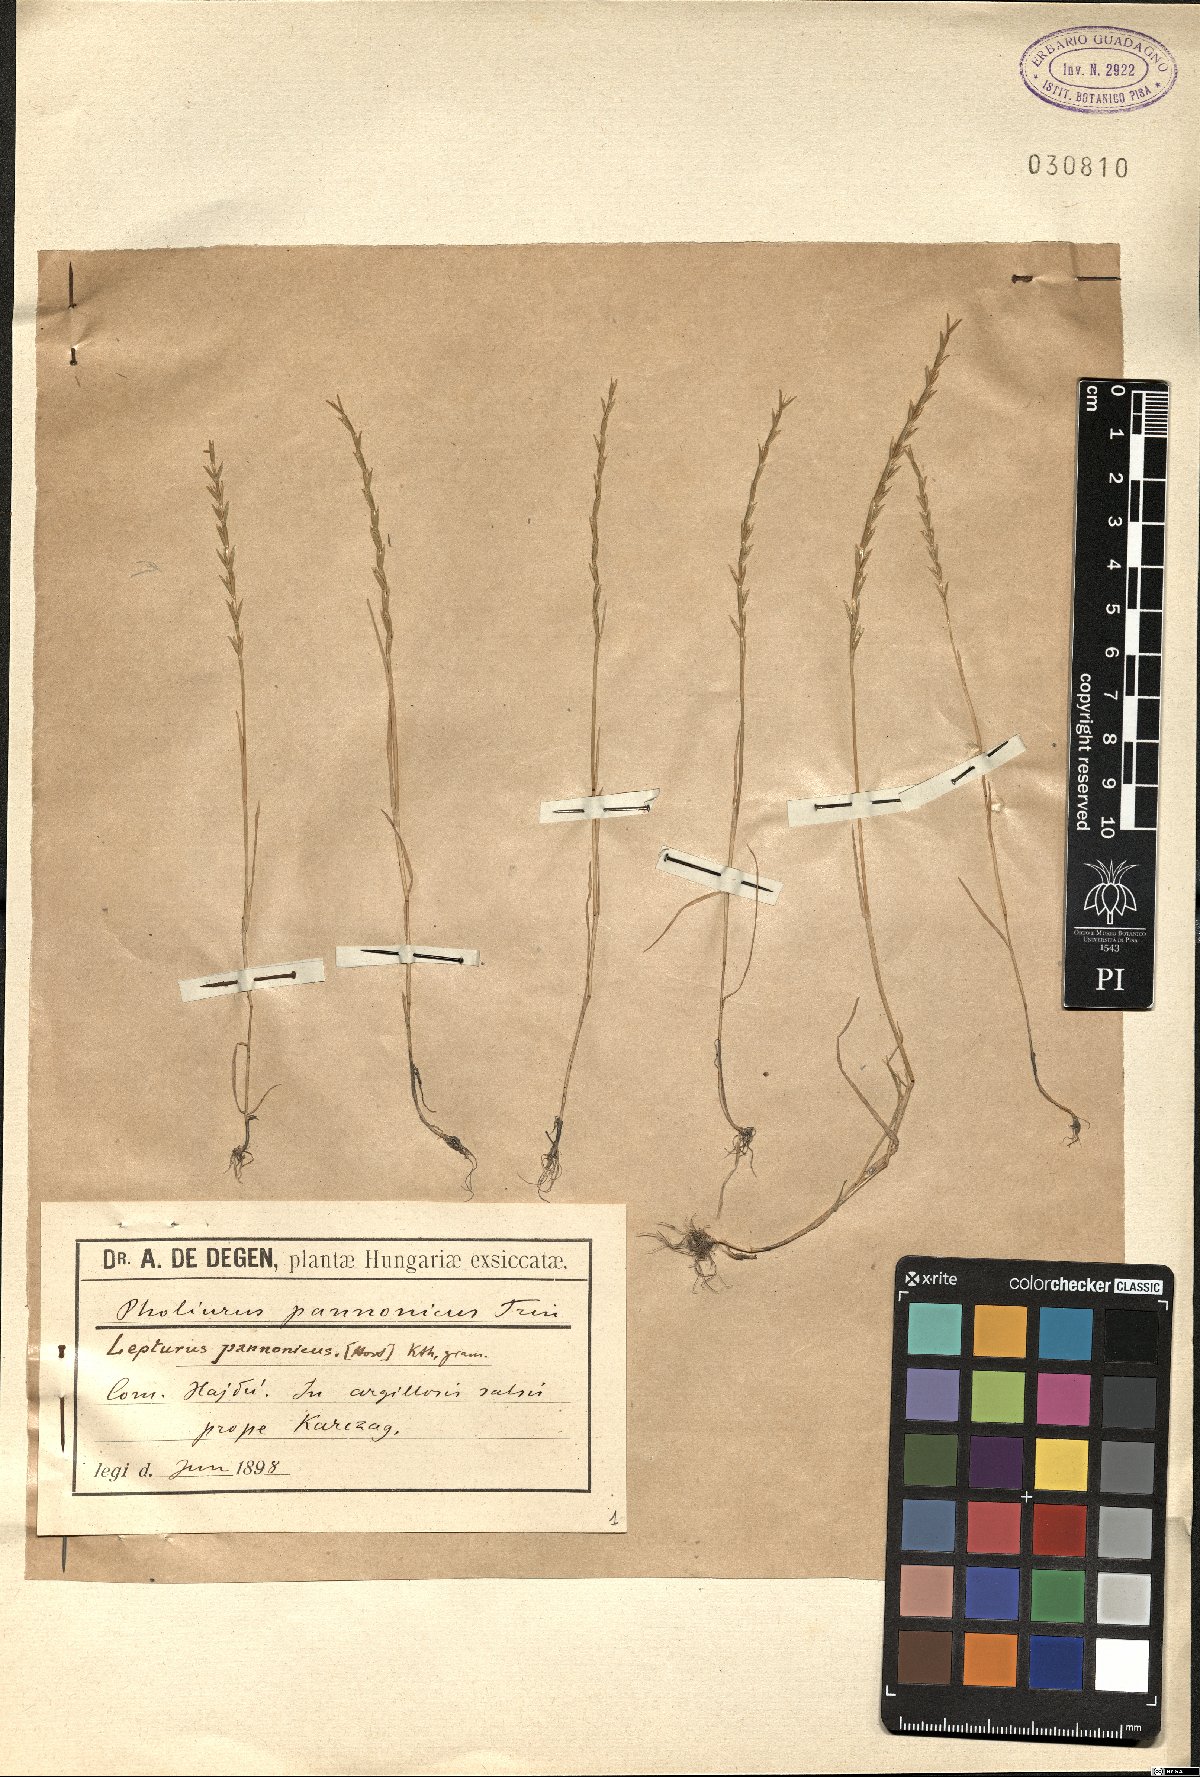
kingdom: Plantae
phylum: Tracheophyta
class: Liliopsida
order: Poales
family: Poaceae
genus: Pholiurus
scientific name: Pholiurus pannonicus
